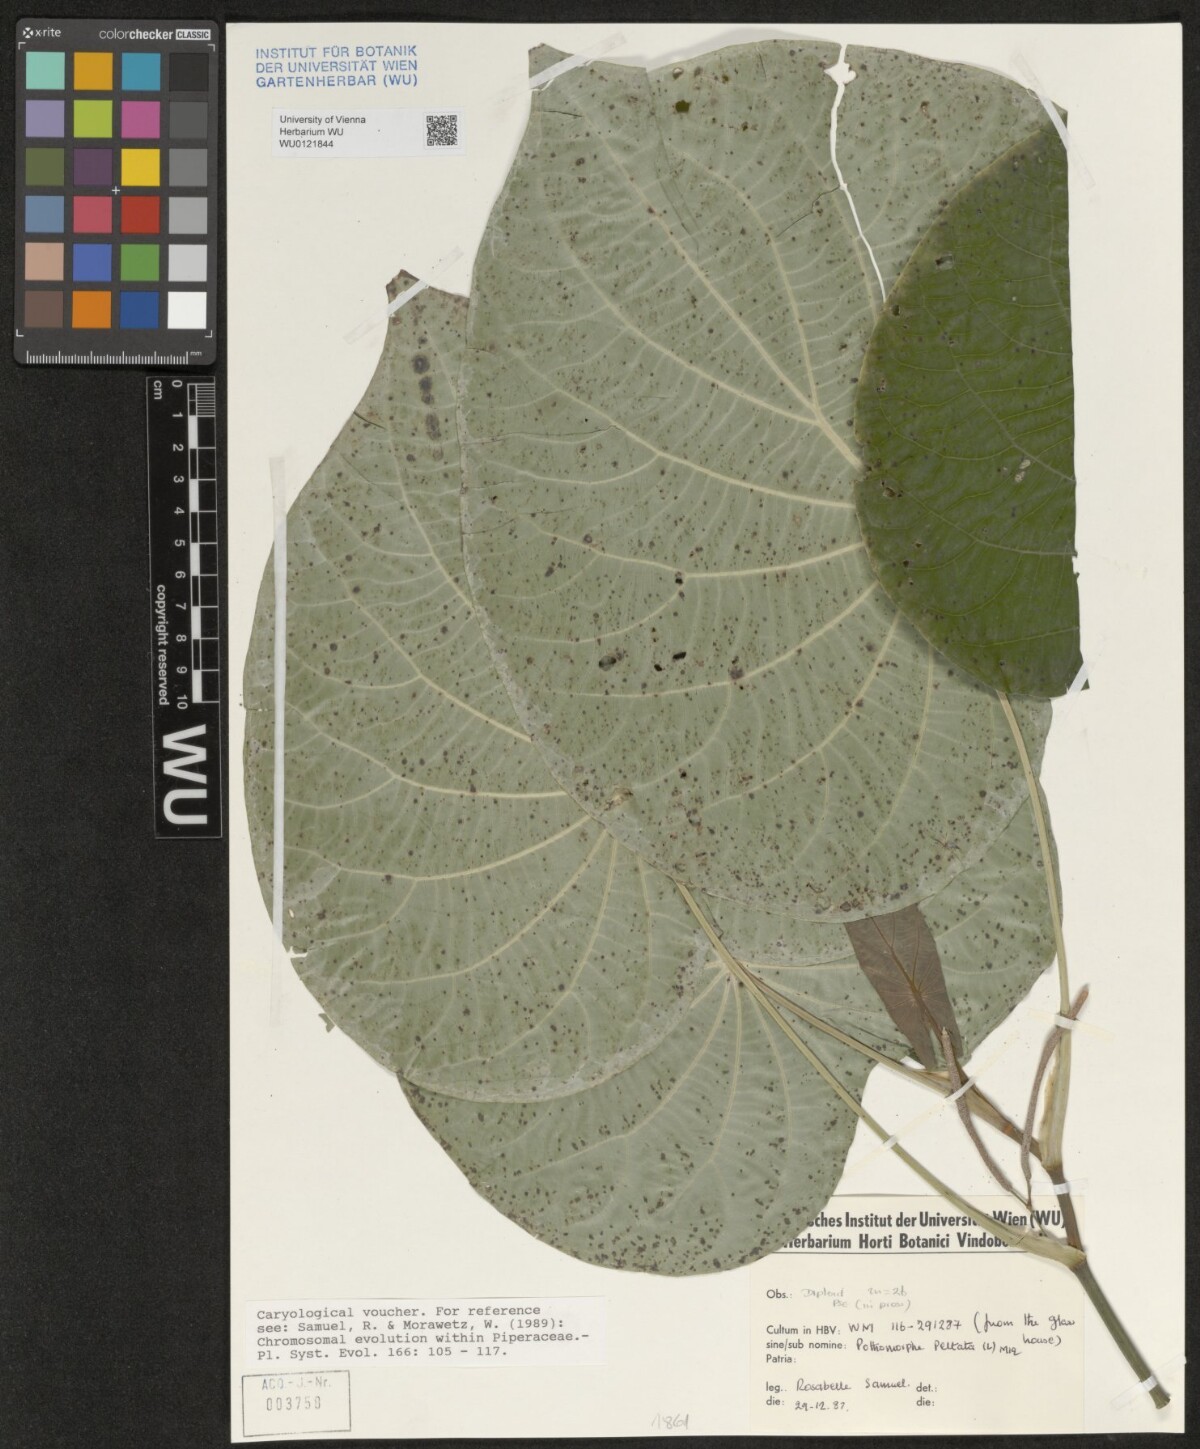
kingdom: Plantae
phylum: Tracheophyta
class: Magnoliopsida
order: Piperales
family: Piperaceae
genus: Piper
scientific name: Piper peltatum
